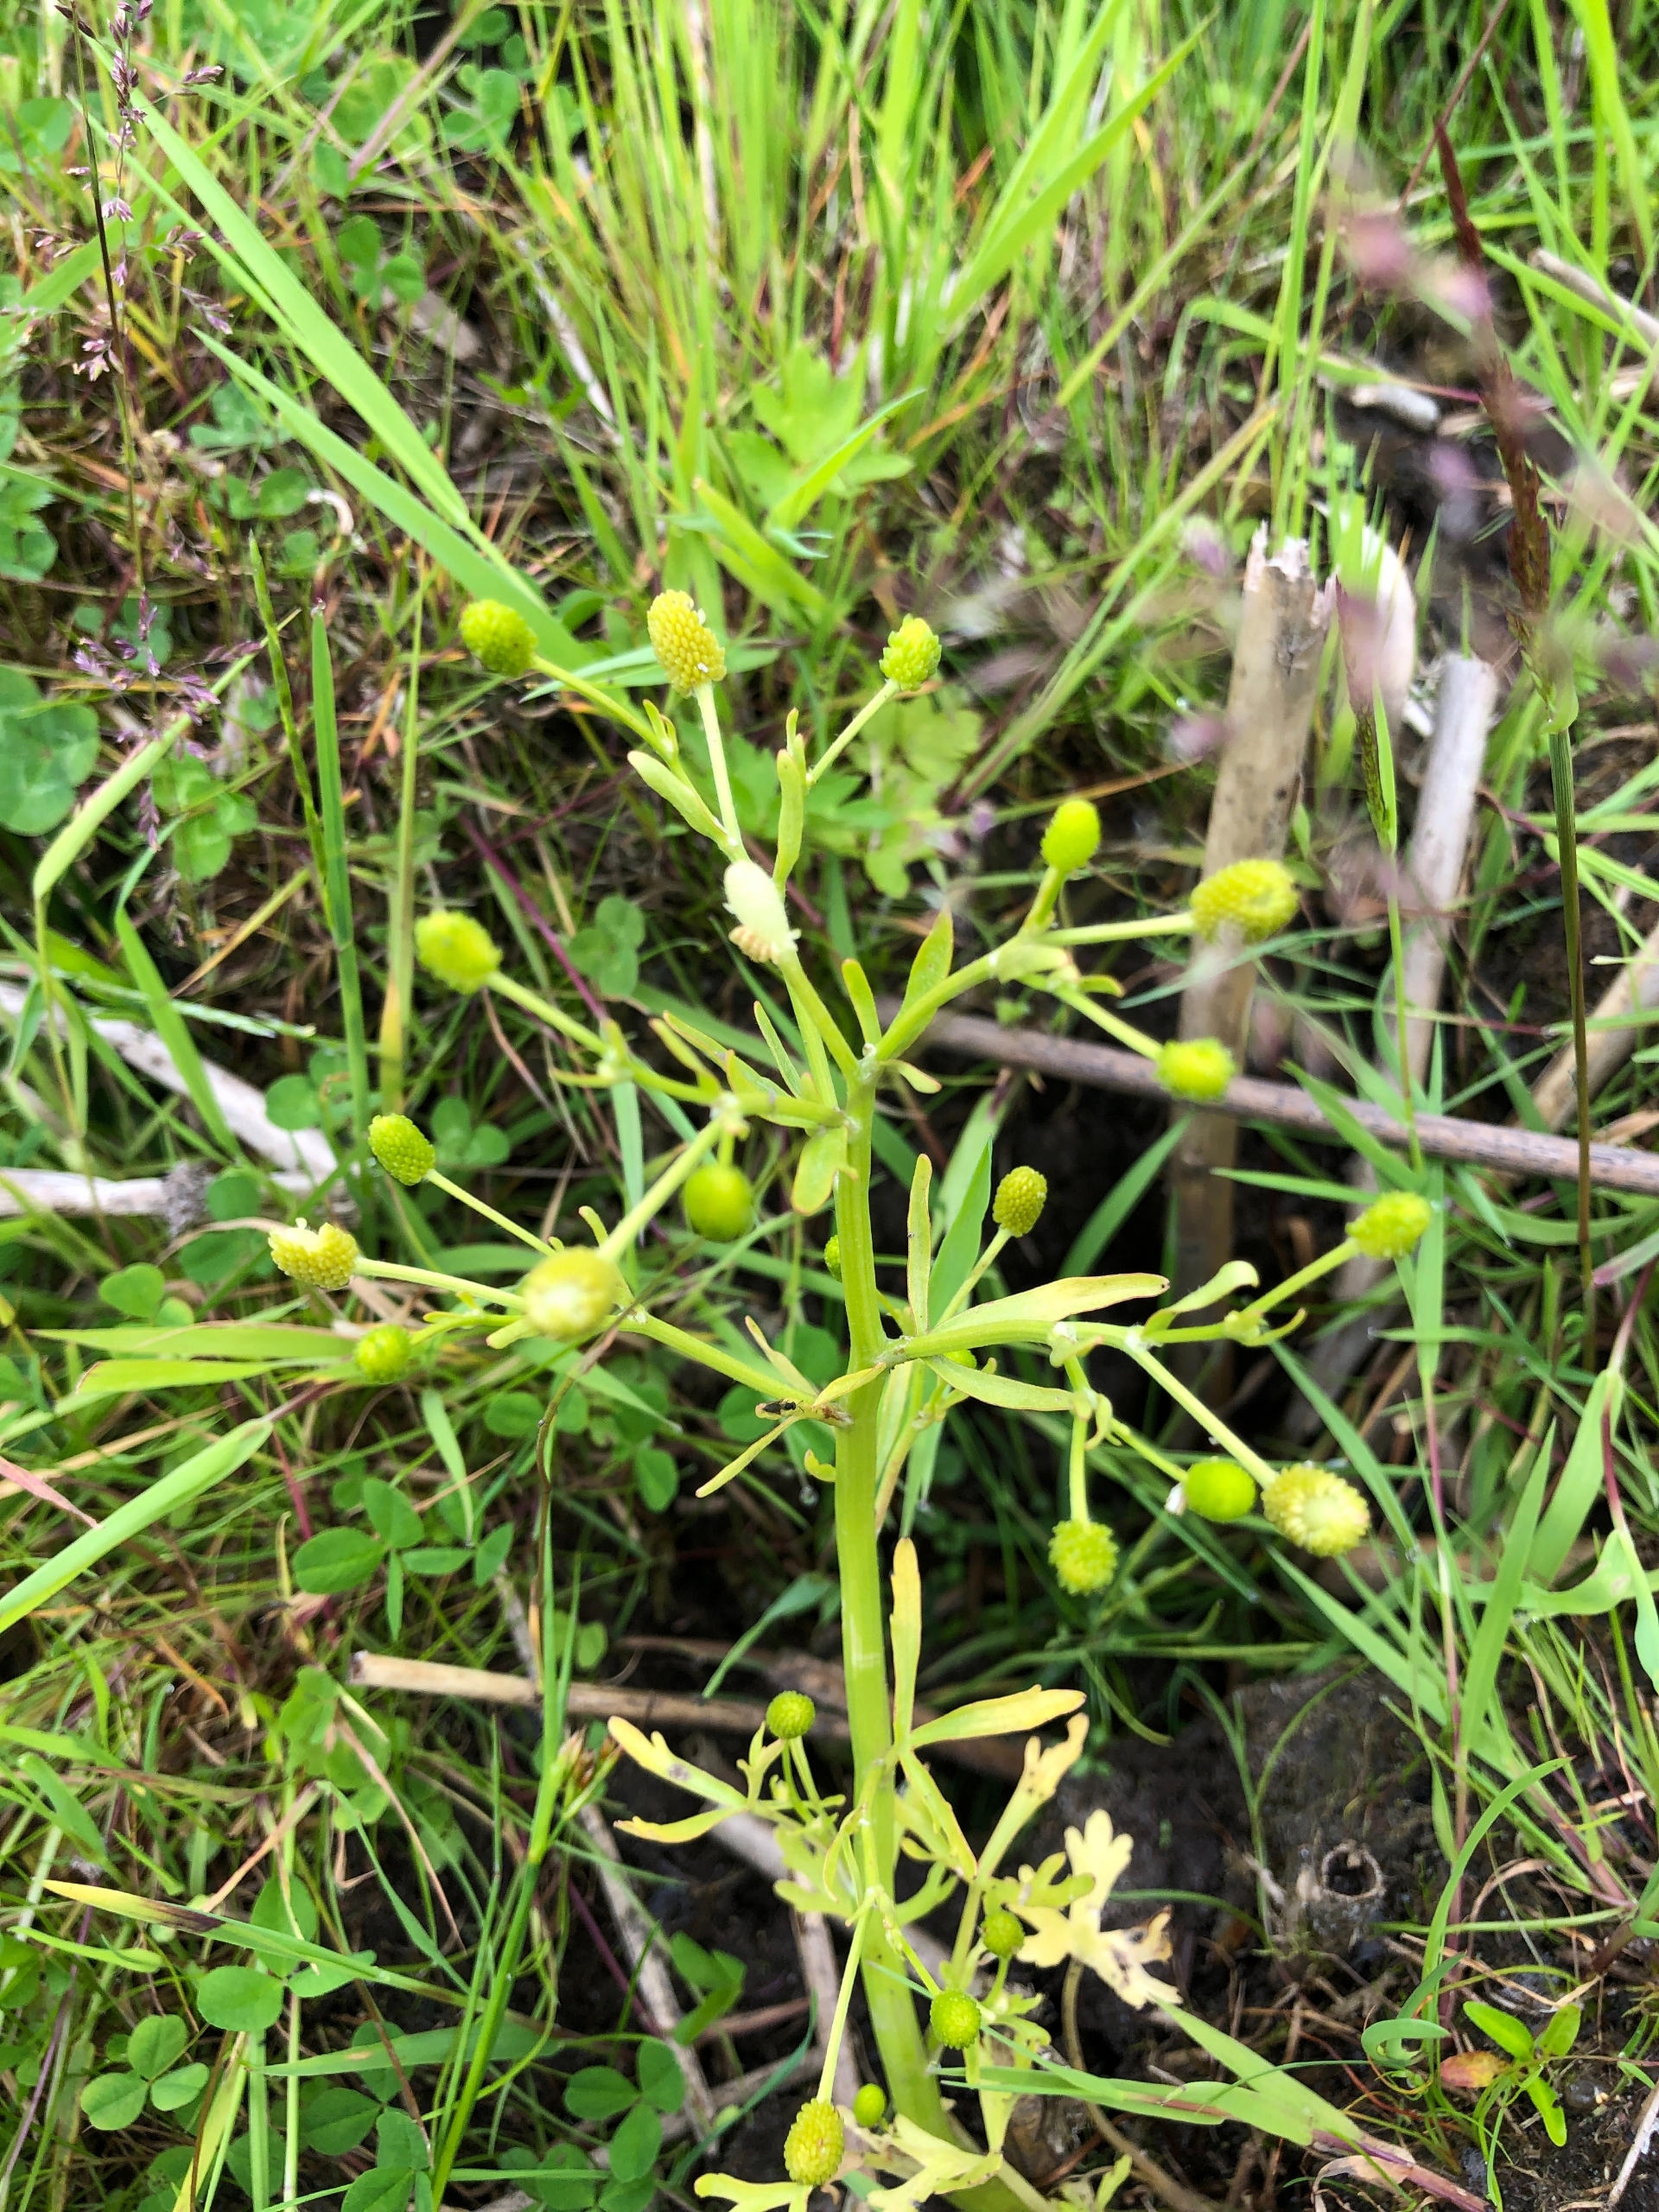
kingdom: Plantae
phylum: Tracheophyta
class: Magnoliopsida
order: Ranunculales
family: Ranunculaceae
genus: Ranunculus
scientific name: Ranunculus sceleratus
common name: Tigger-ranunkel
